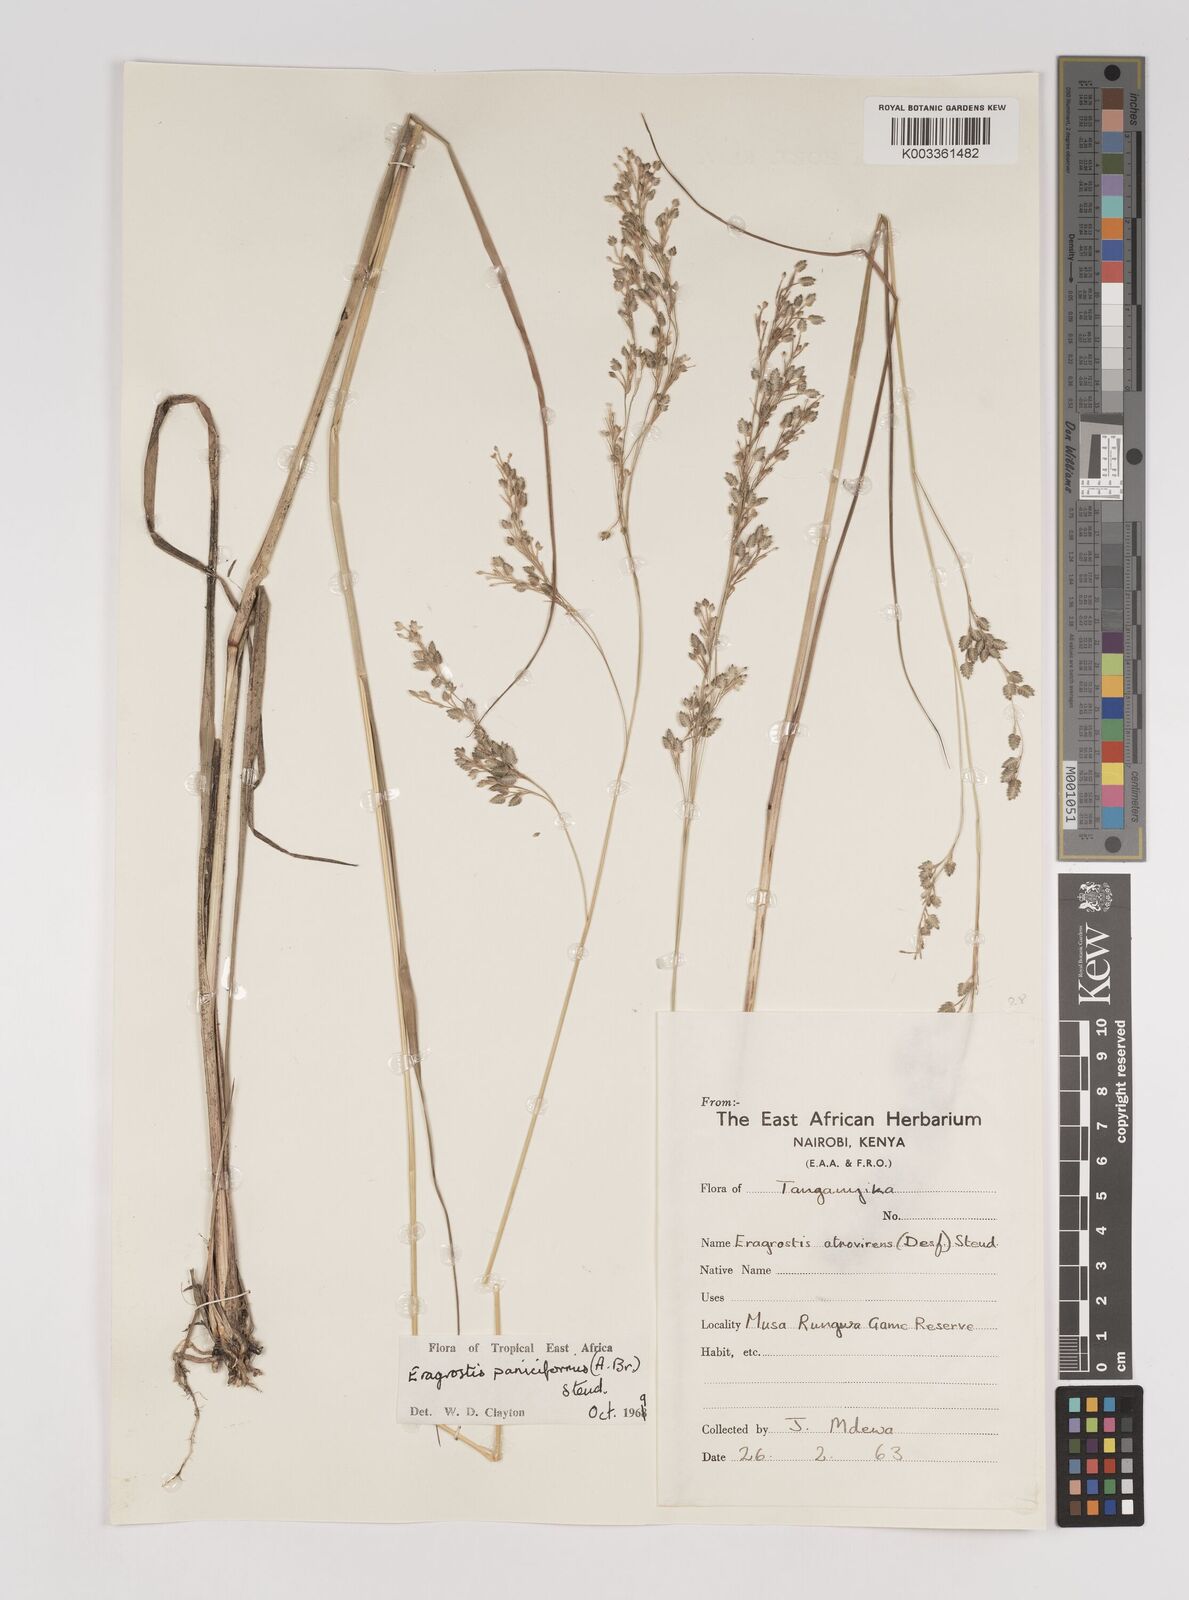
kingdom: Plantae
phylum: Tracheophyta
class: Liliopsida
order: Poales
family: Poaceae
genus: Eragrostis
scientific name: Eragrostis paniciformis
